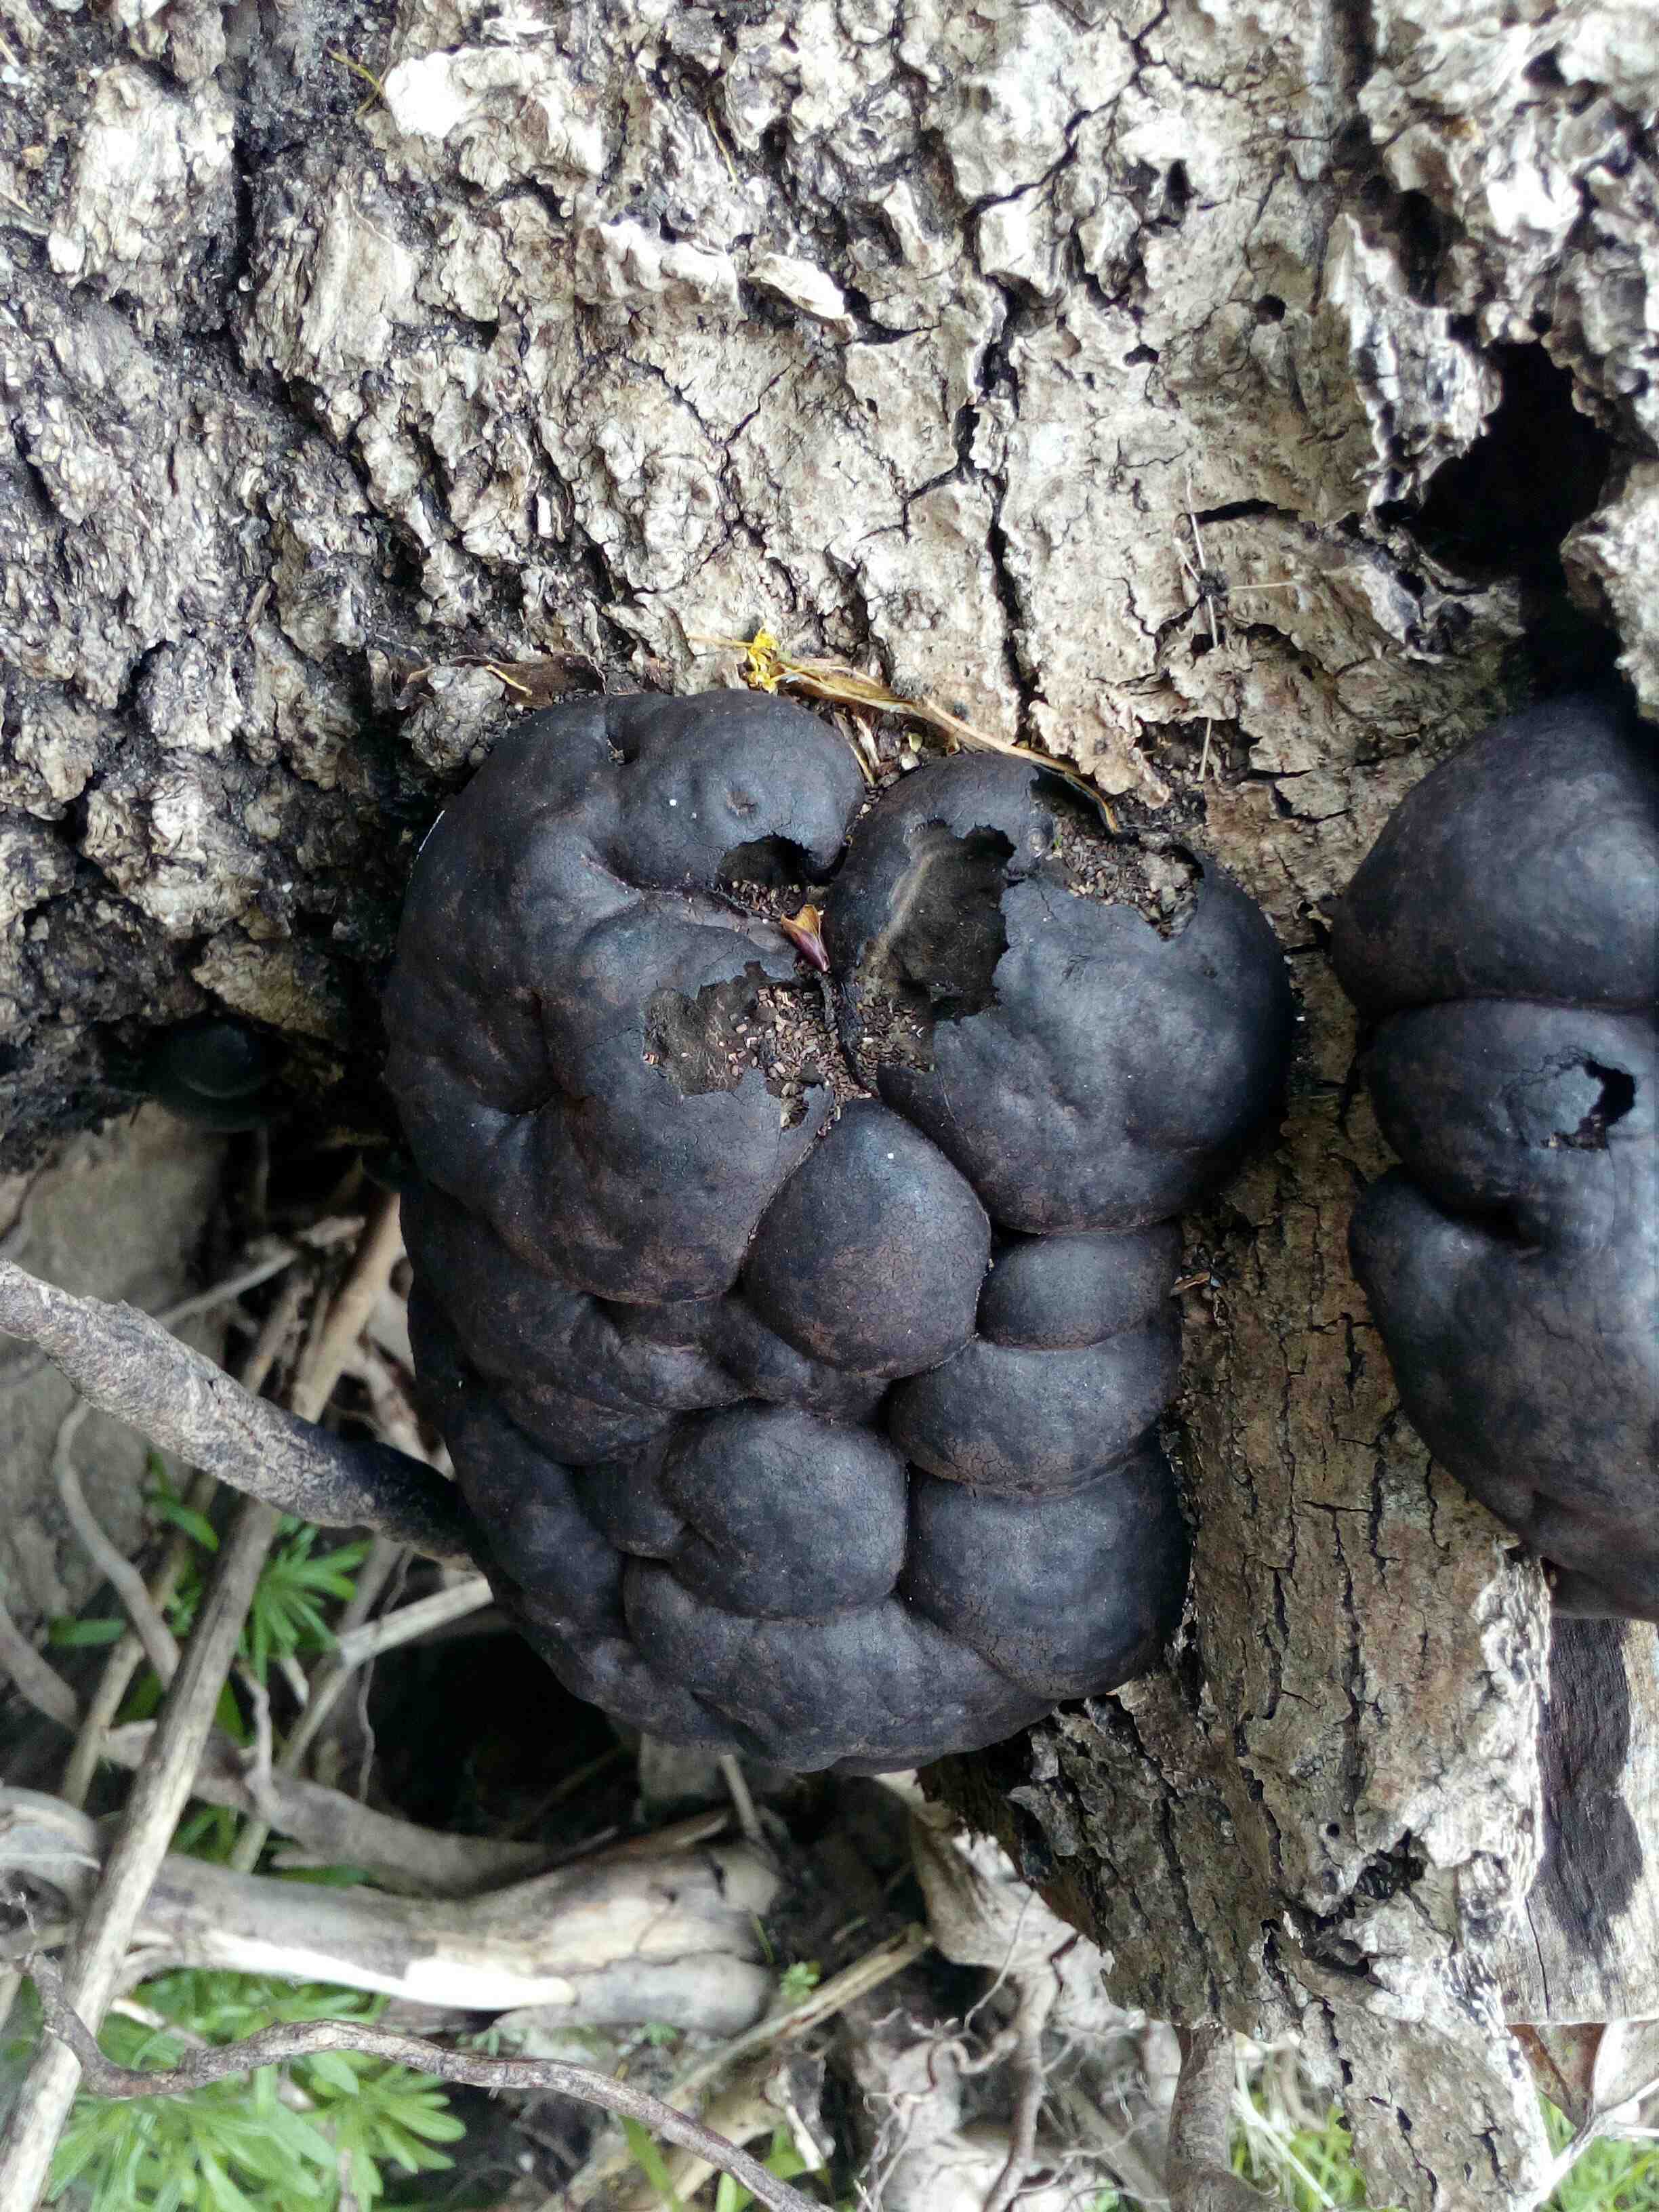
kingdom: Fungi
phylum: Ascomycota
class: Sordariomycetes
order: Xylariales
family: Hypoxylaceae
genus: Daldinia
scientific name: Daldinia concentrica
